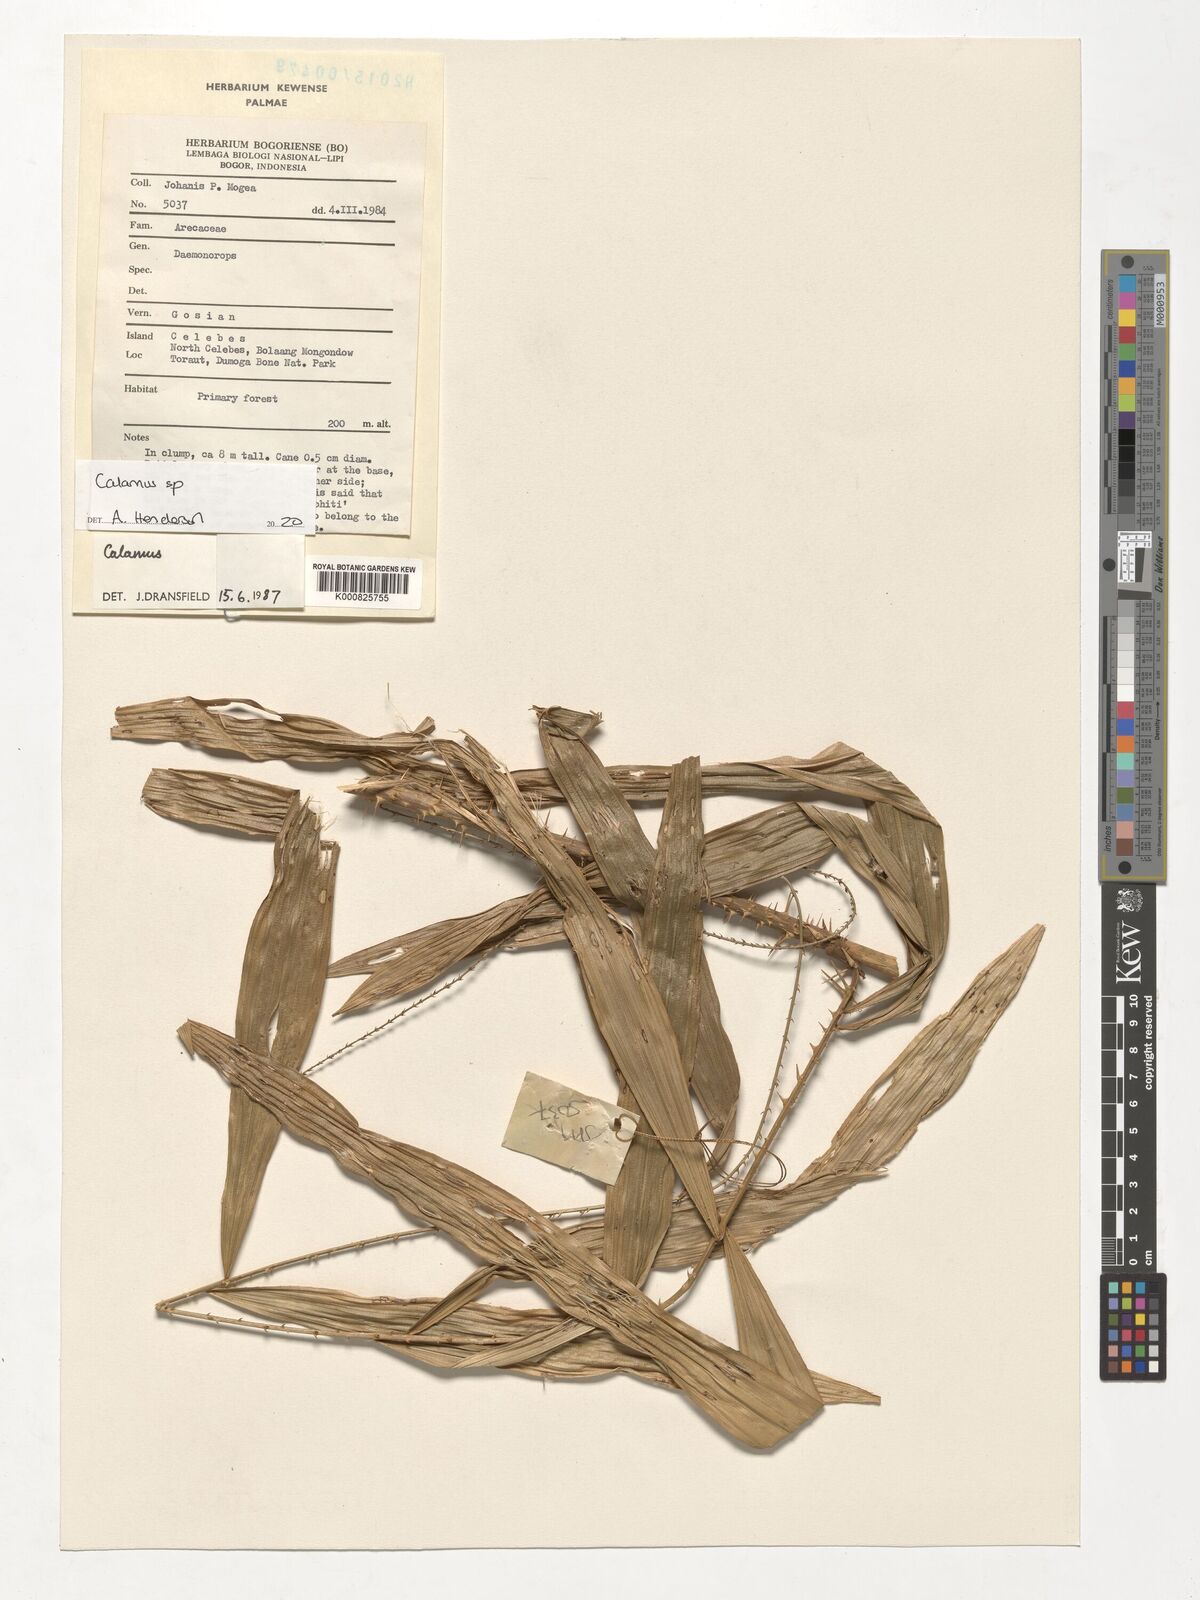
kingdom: Plantae
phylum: Tracheophyta
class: Liliopsida
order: Arecales
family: Arecaceae
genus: Calamus
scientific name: Calamus
